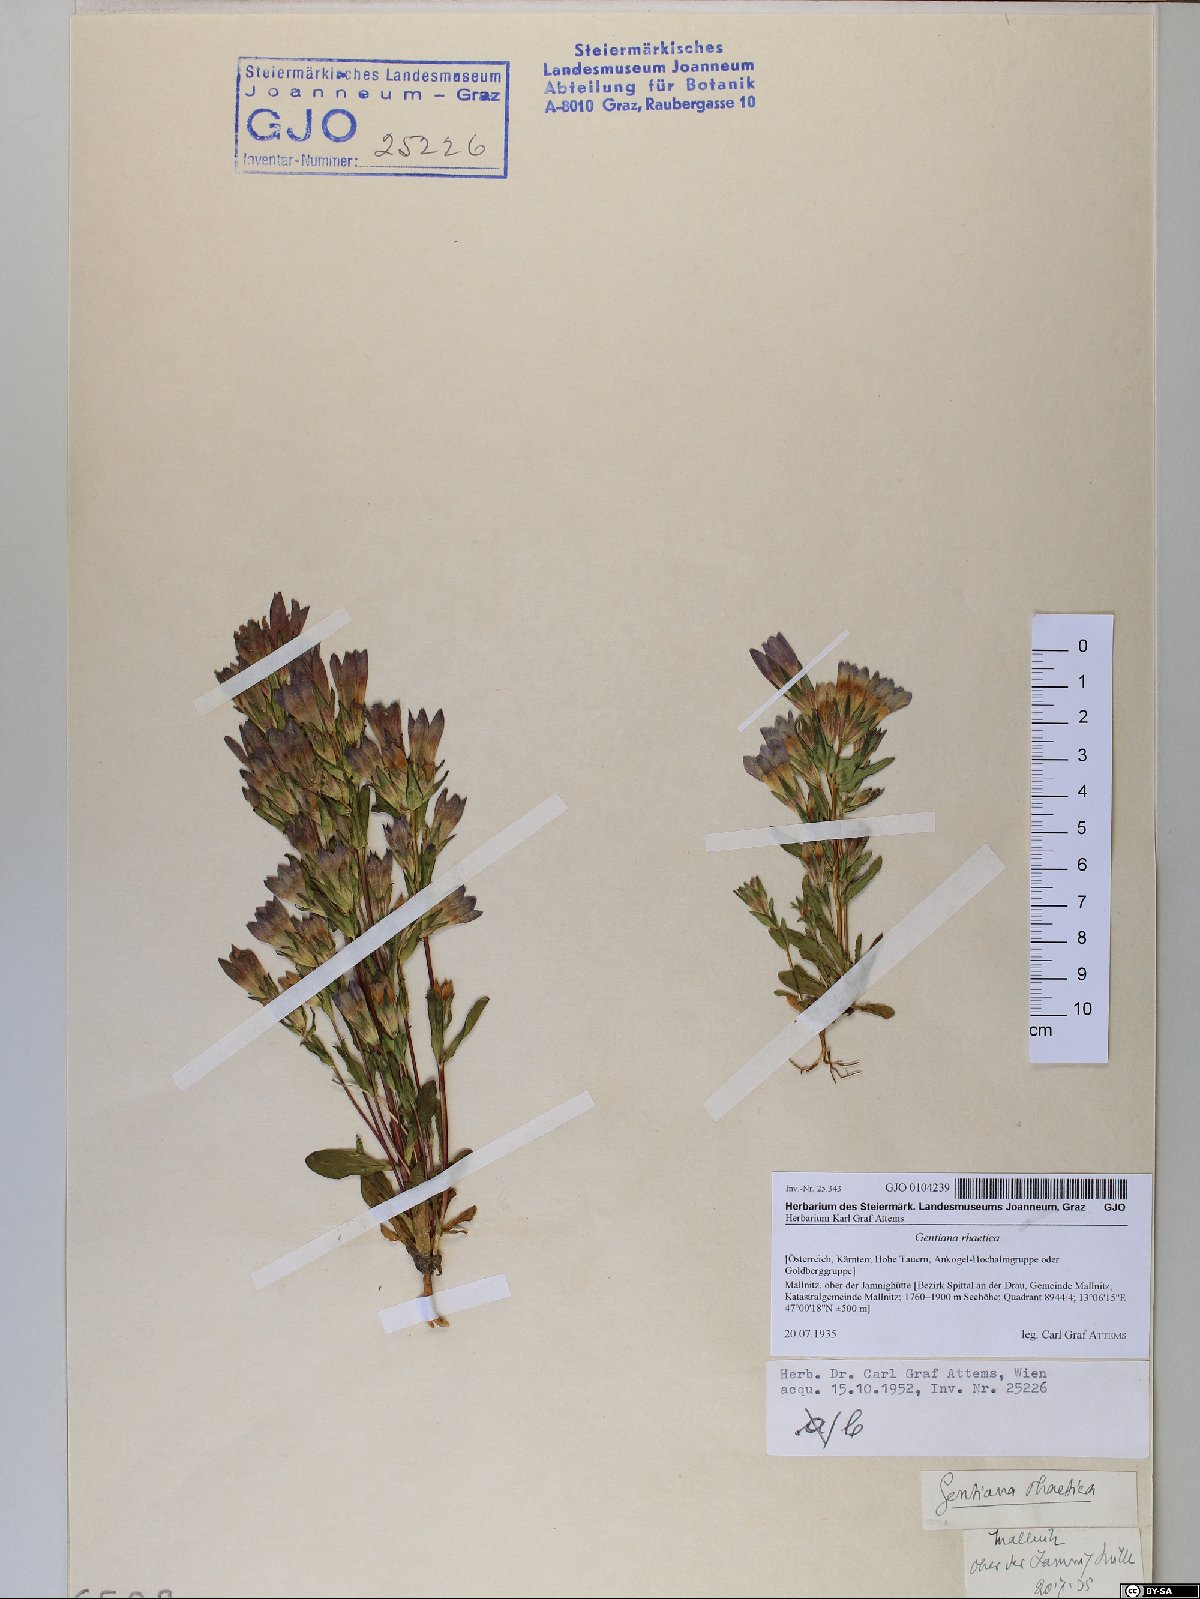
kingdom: Plantae
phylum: Tracheophyta
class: Magnoliopsida
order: Gentianales
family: Gentianaceae
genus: Gentianella
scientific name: Gentianella rhaetica
